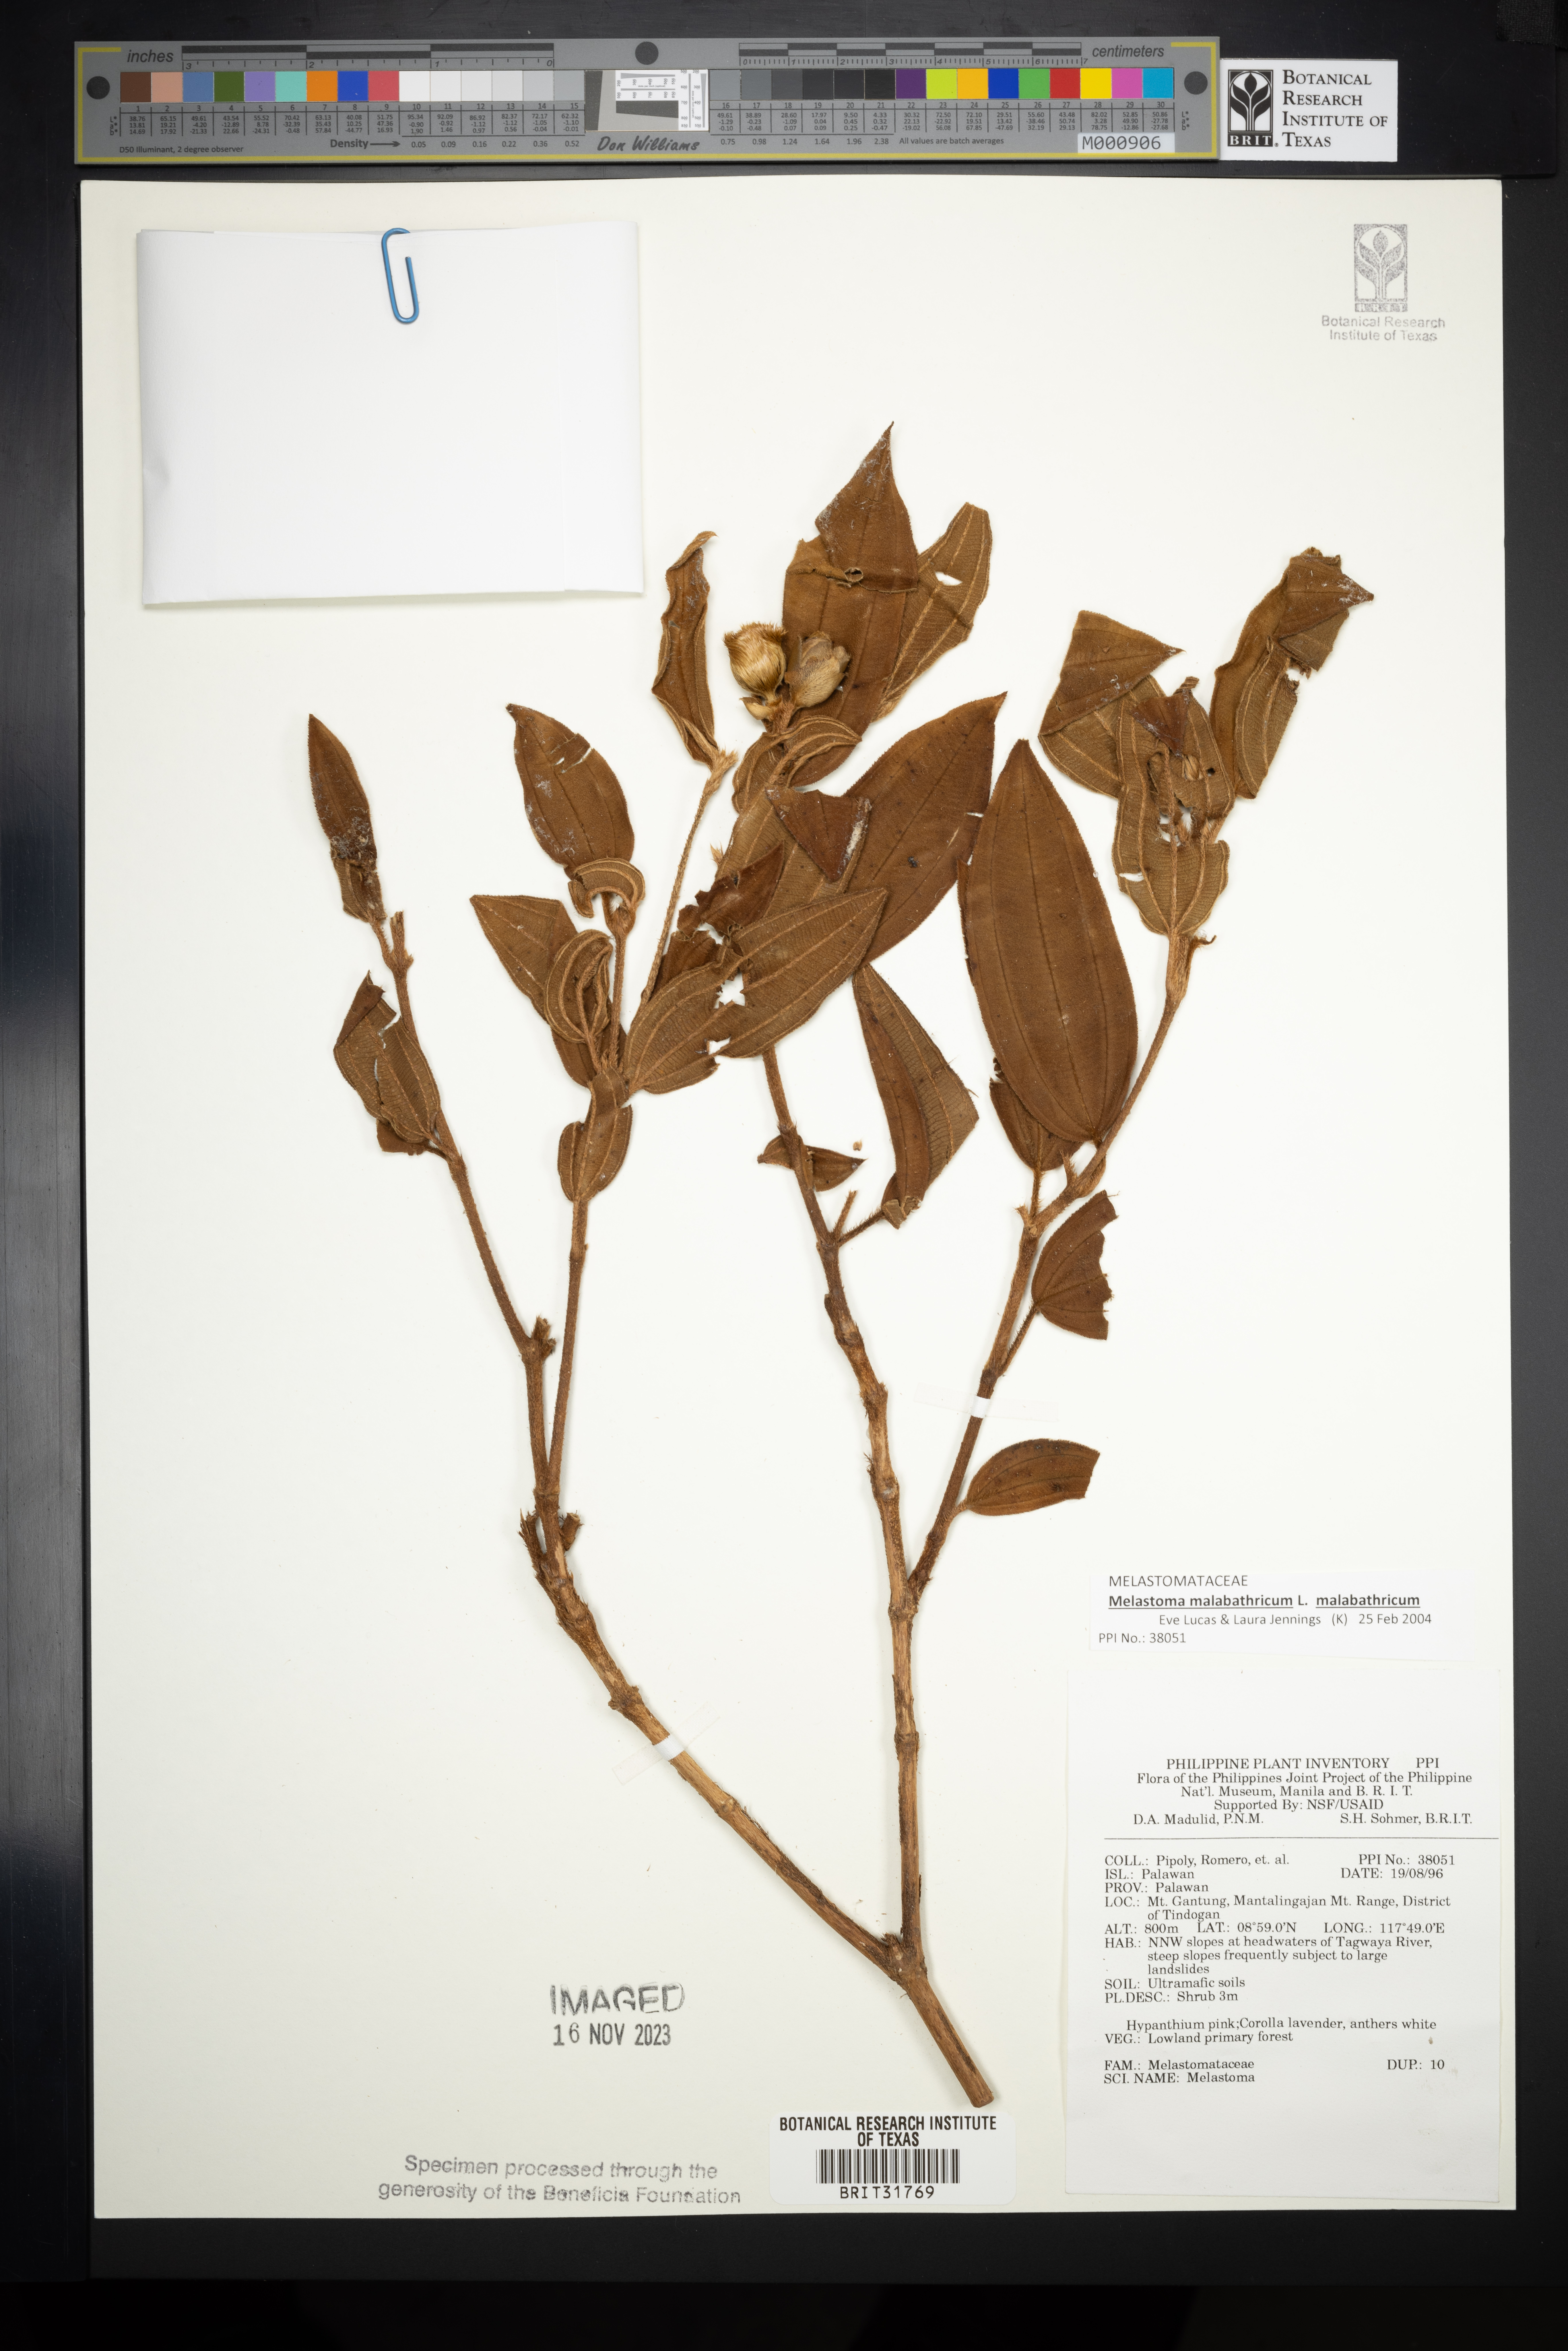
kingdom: Plantae
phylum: Tracheophyta
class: Magnoliopsida
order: Myrtales
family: Melastomataceae
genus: Melastoma
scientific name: Melastoma
